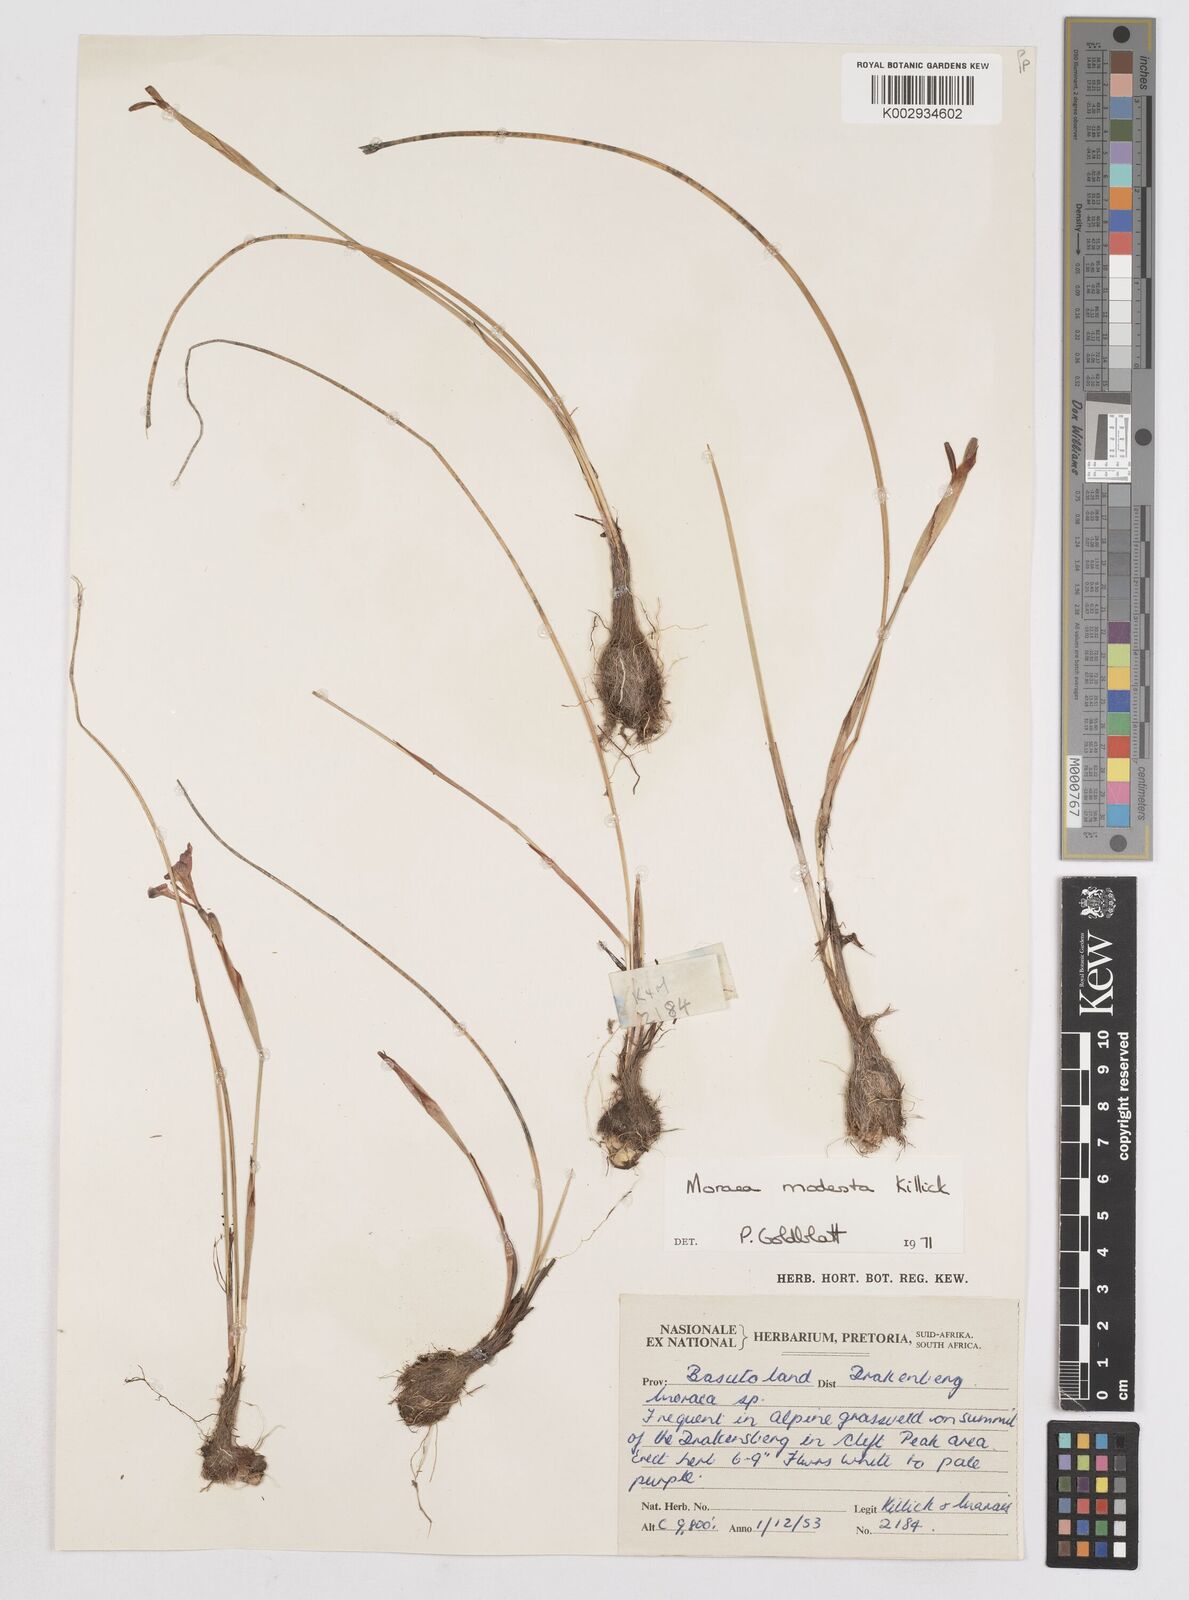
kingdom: Plantae
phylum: Tracheophyta
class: Liliopsida
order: Asparagales
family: Iridaceae
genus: Moraea
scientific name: Moraea modesta
